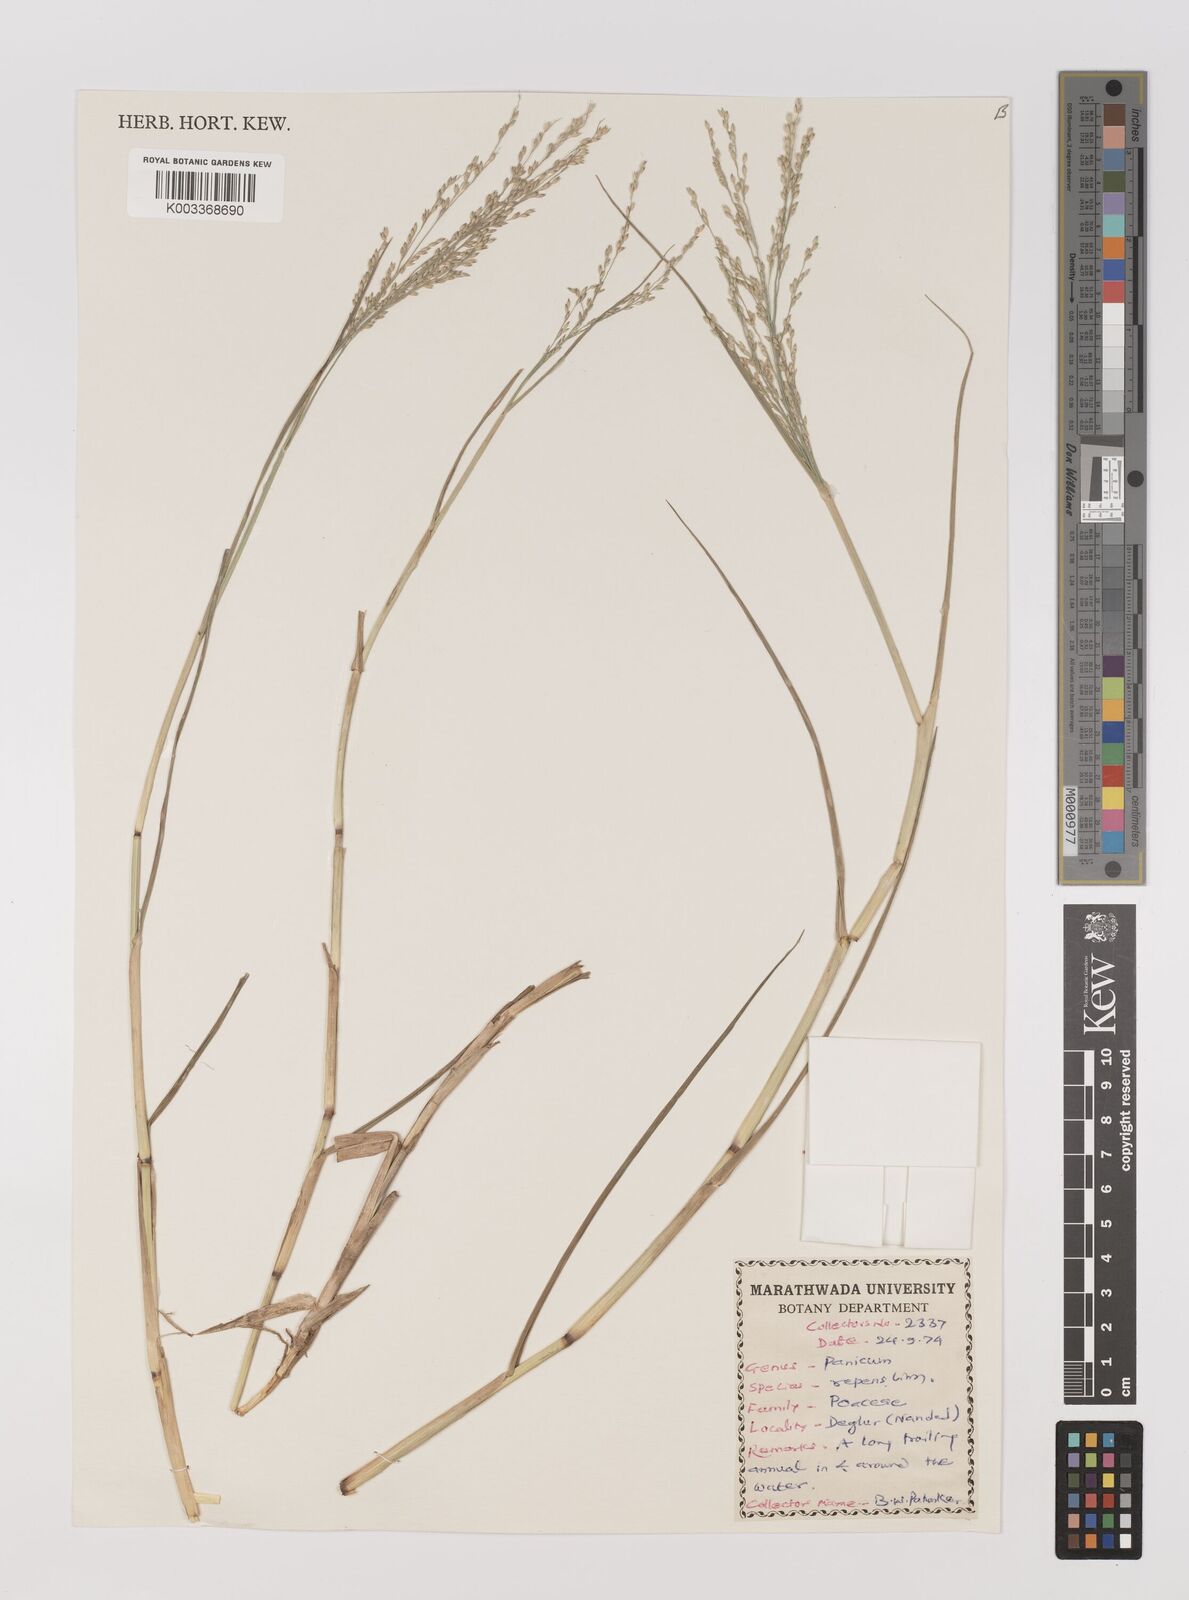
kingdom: Plantae
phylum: Tracheophyta
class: Liliopsida
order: Poales
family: Poaceae
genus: Panicum
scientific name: Panicum repens
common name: Torpedo grass
